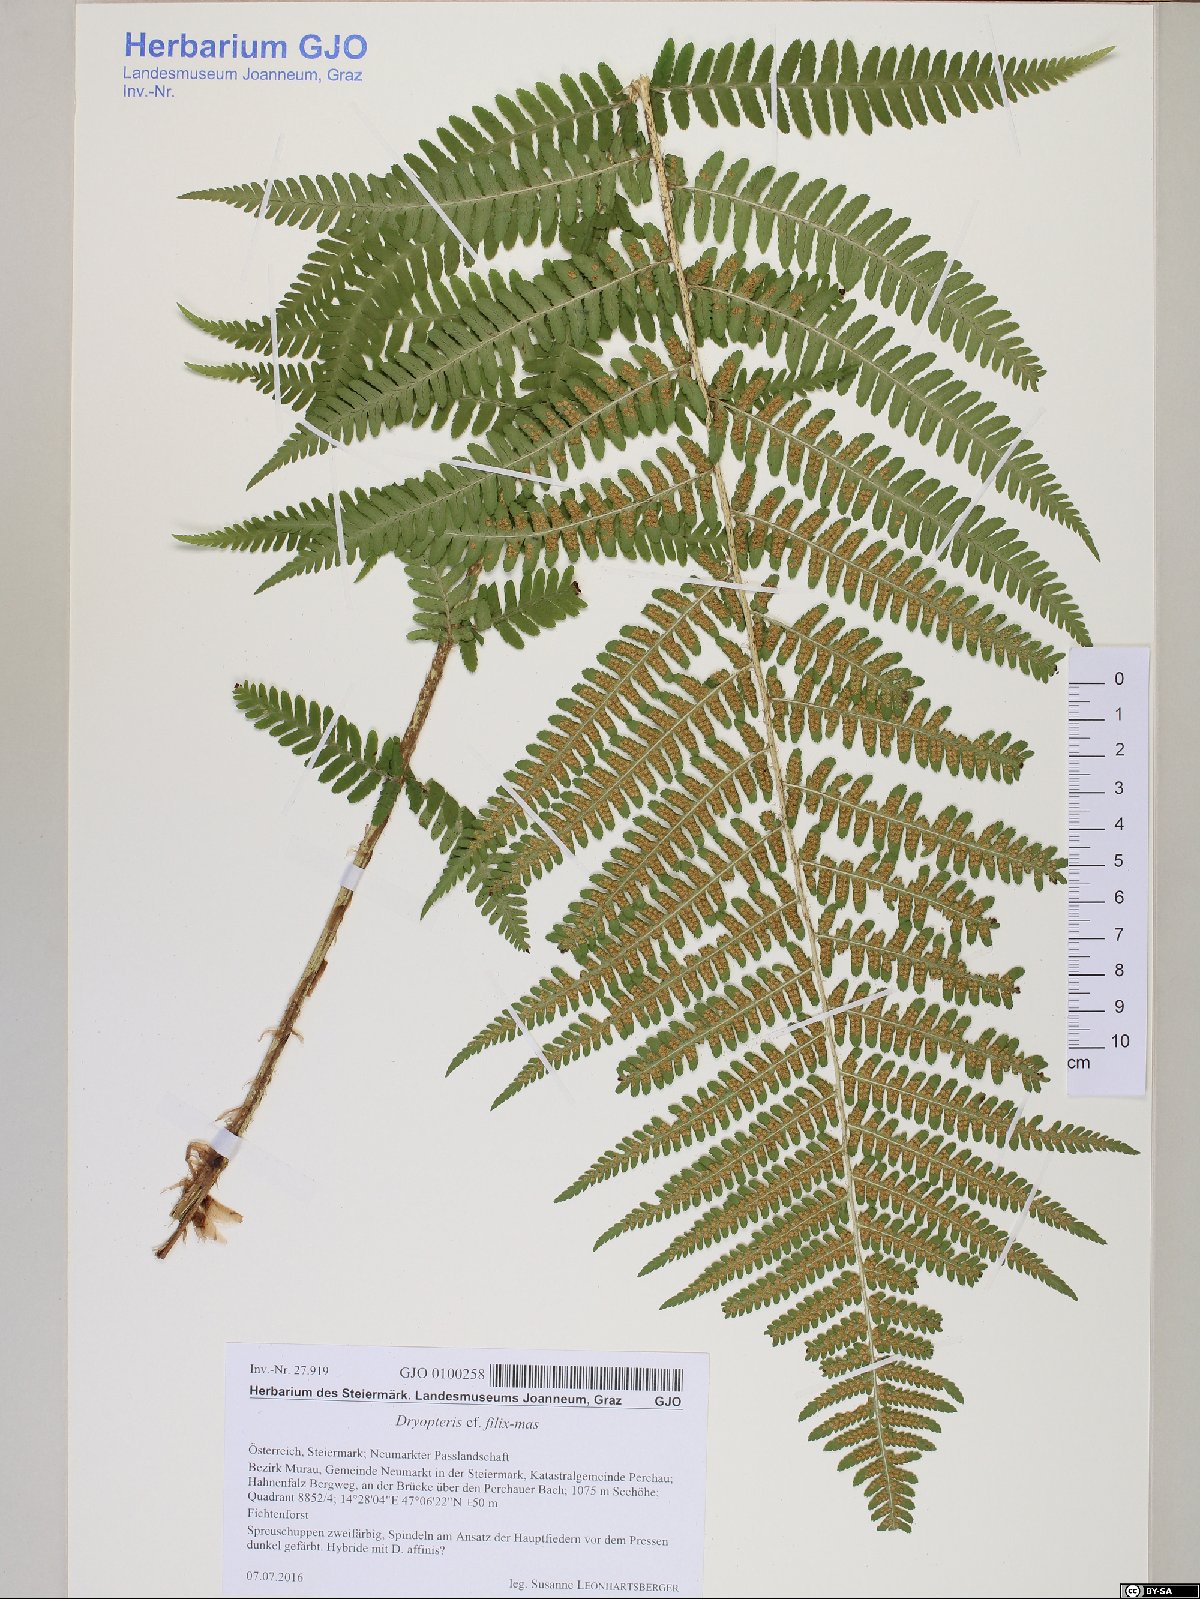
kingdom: Plantae
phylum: Tracheophyta
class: Polypodiopsida
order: Polypodiales
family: Dryopteridaceae
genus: Dryopteris
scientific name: Dryopteris filix-mas
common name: Male fern
